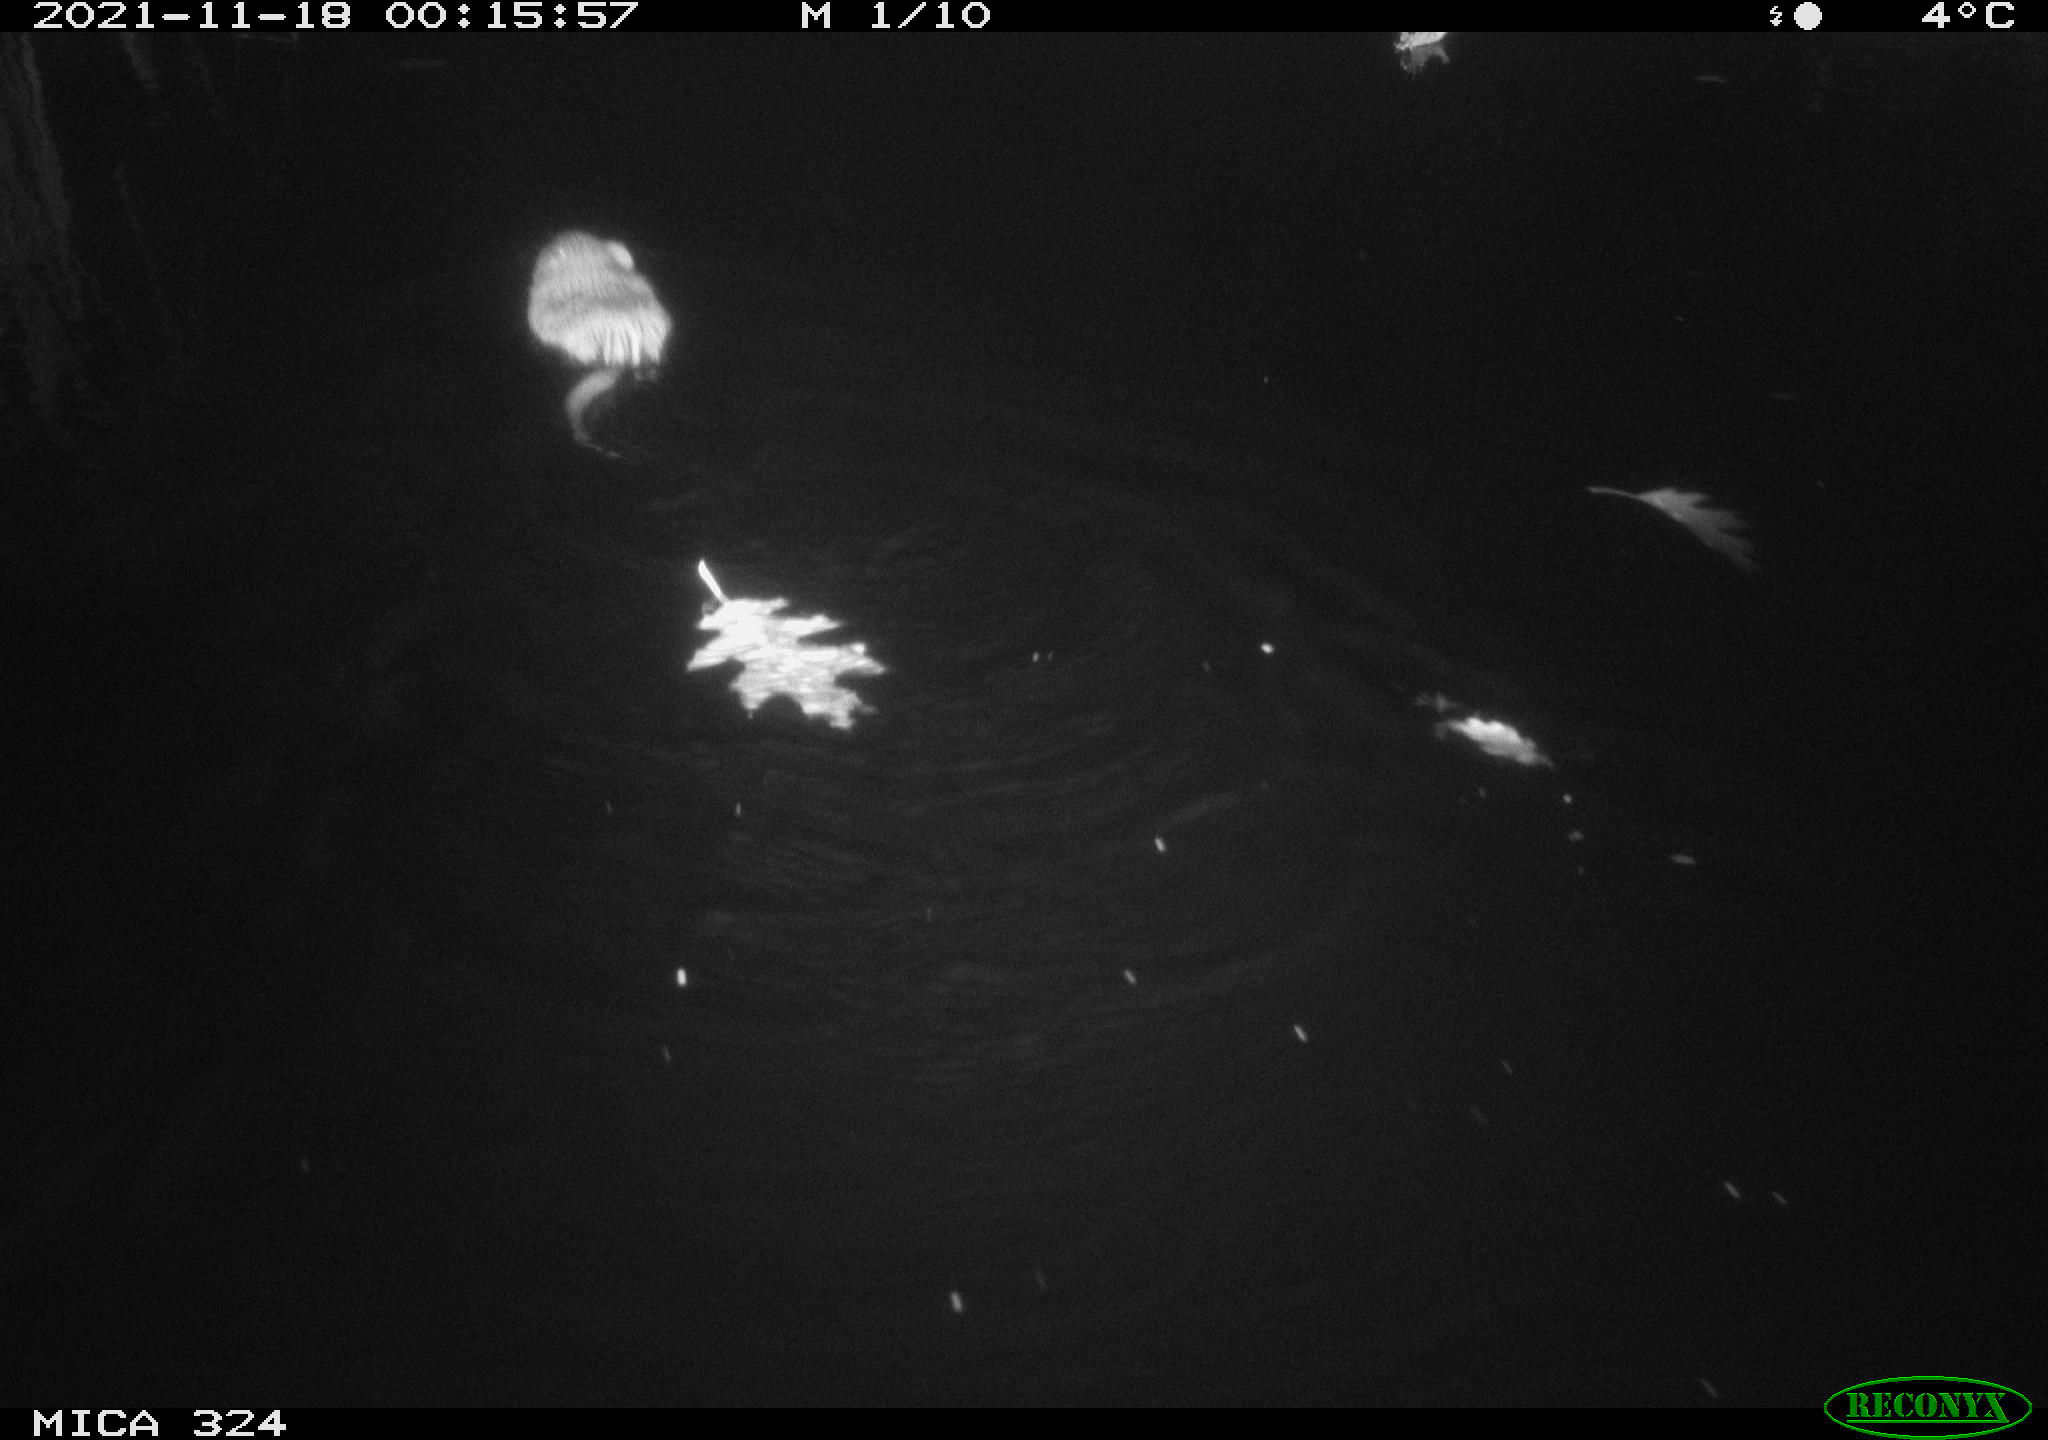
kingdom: Animalia
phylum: Chordata
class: Mammalia
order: Rodentia
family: Cricetidae
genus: Ondatra
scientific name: Ondatra zibethicus
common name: Muskrat
